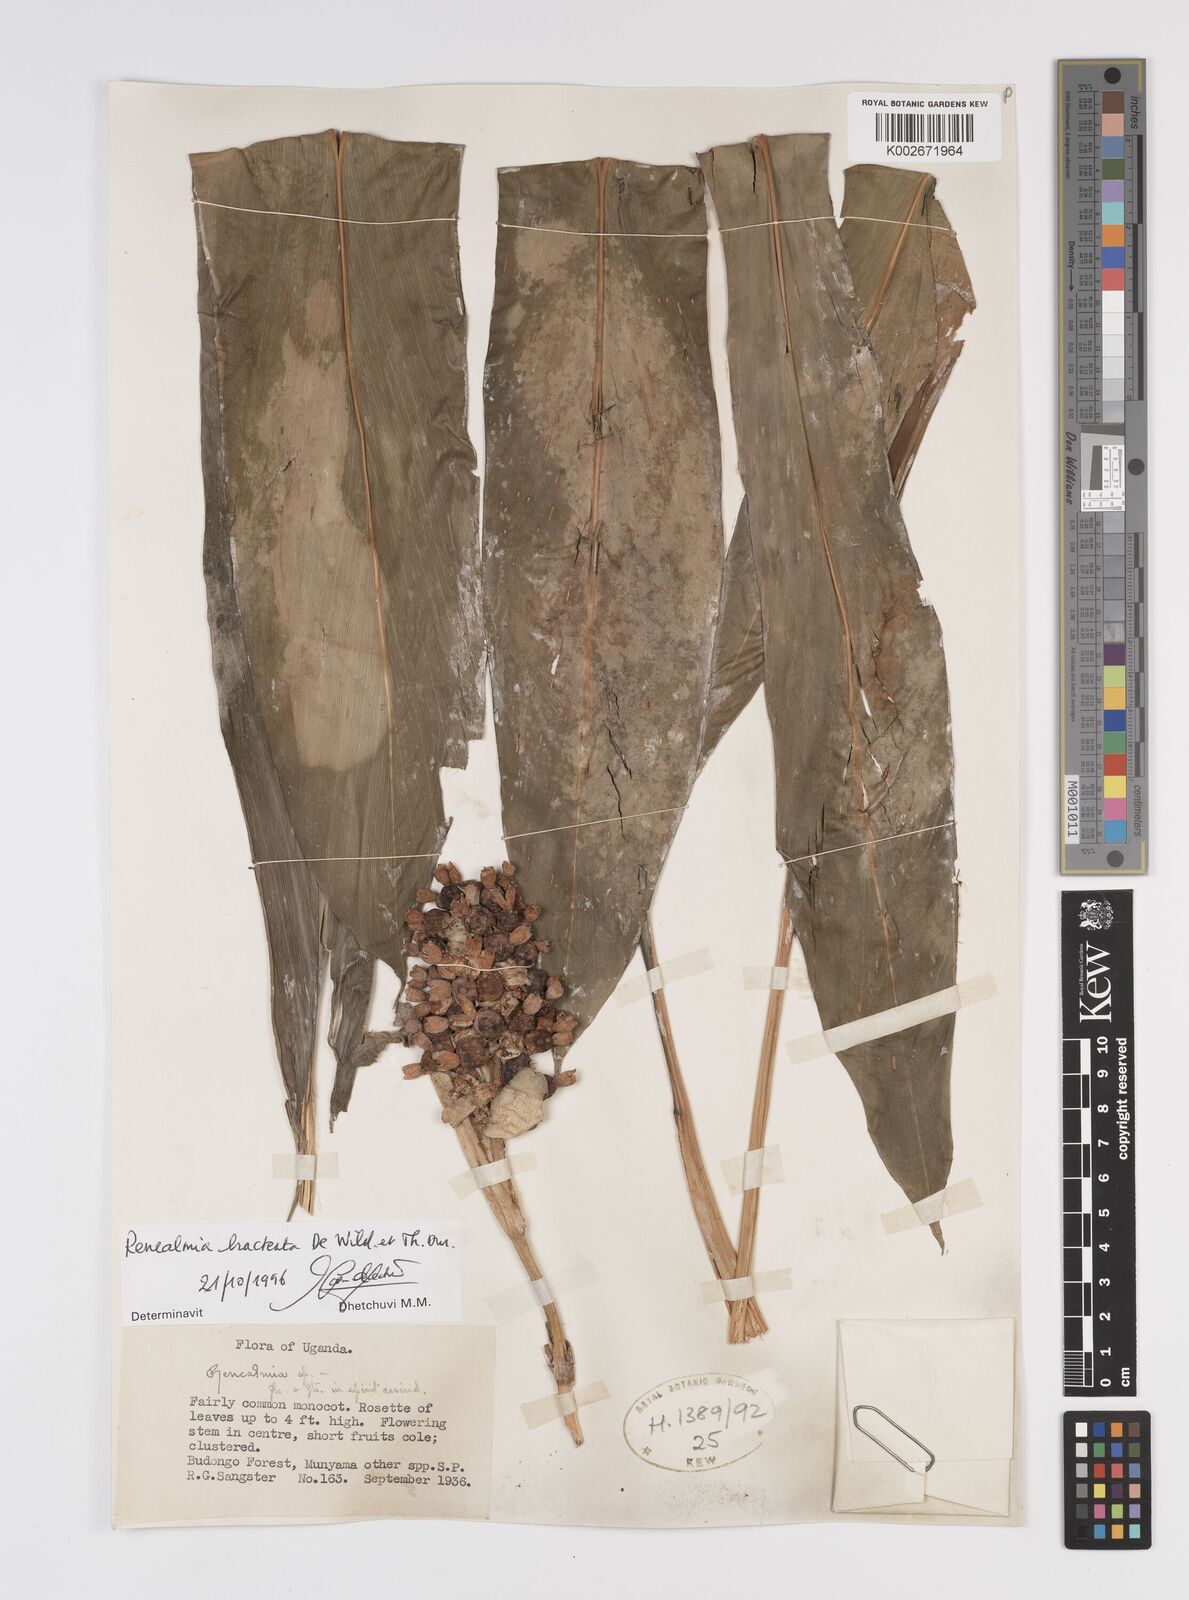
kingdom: Plantae
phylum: Tracheophyta
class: Liliopsida
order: Zingiberales
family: Zingiberaceae
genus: Renealmia
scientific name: Renealmia bracteata
